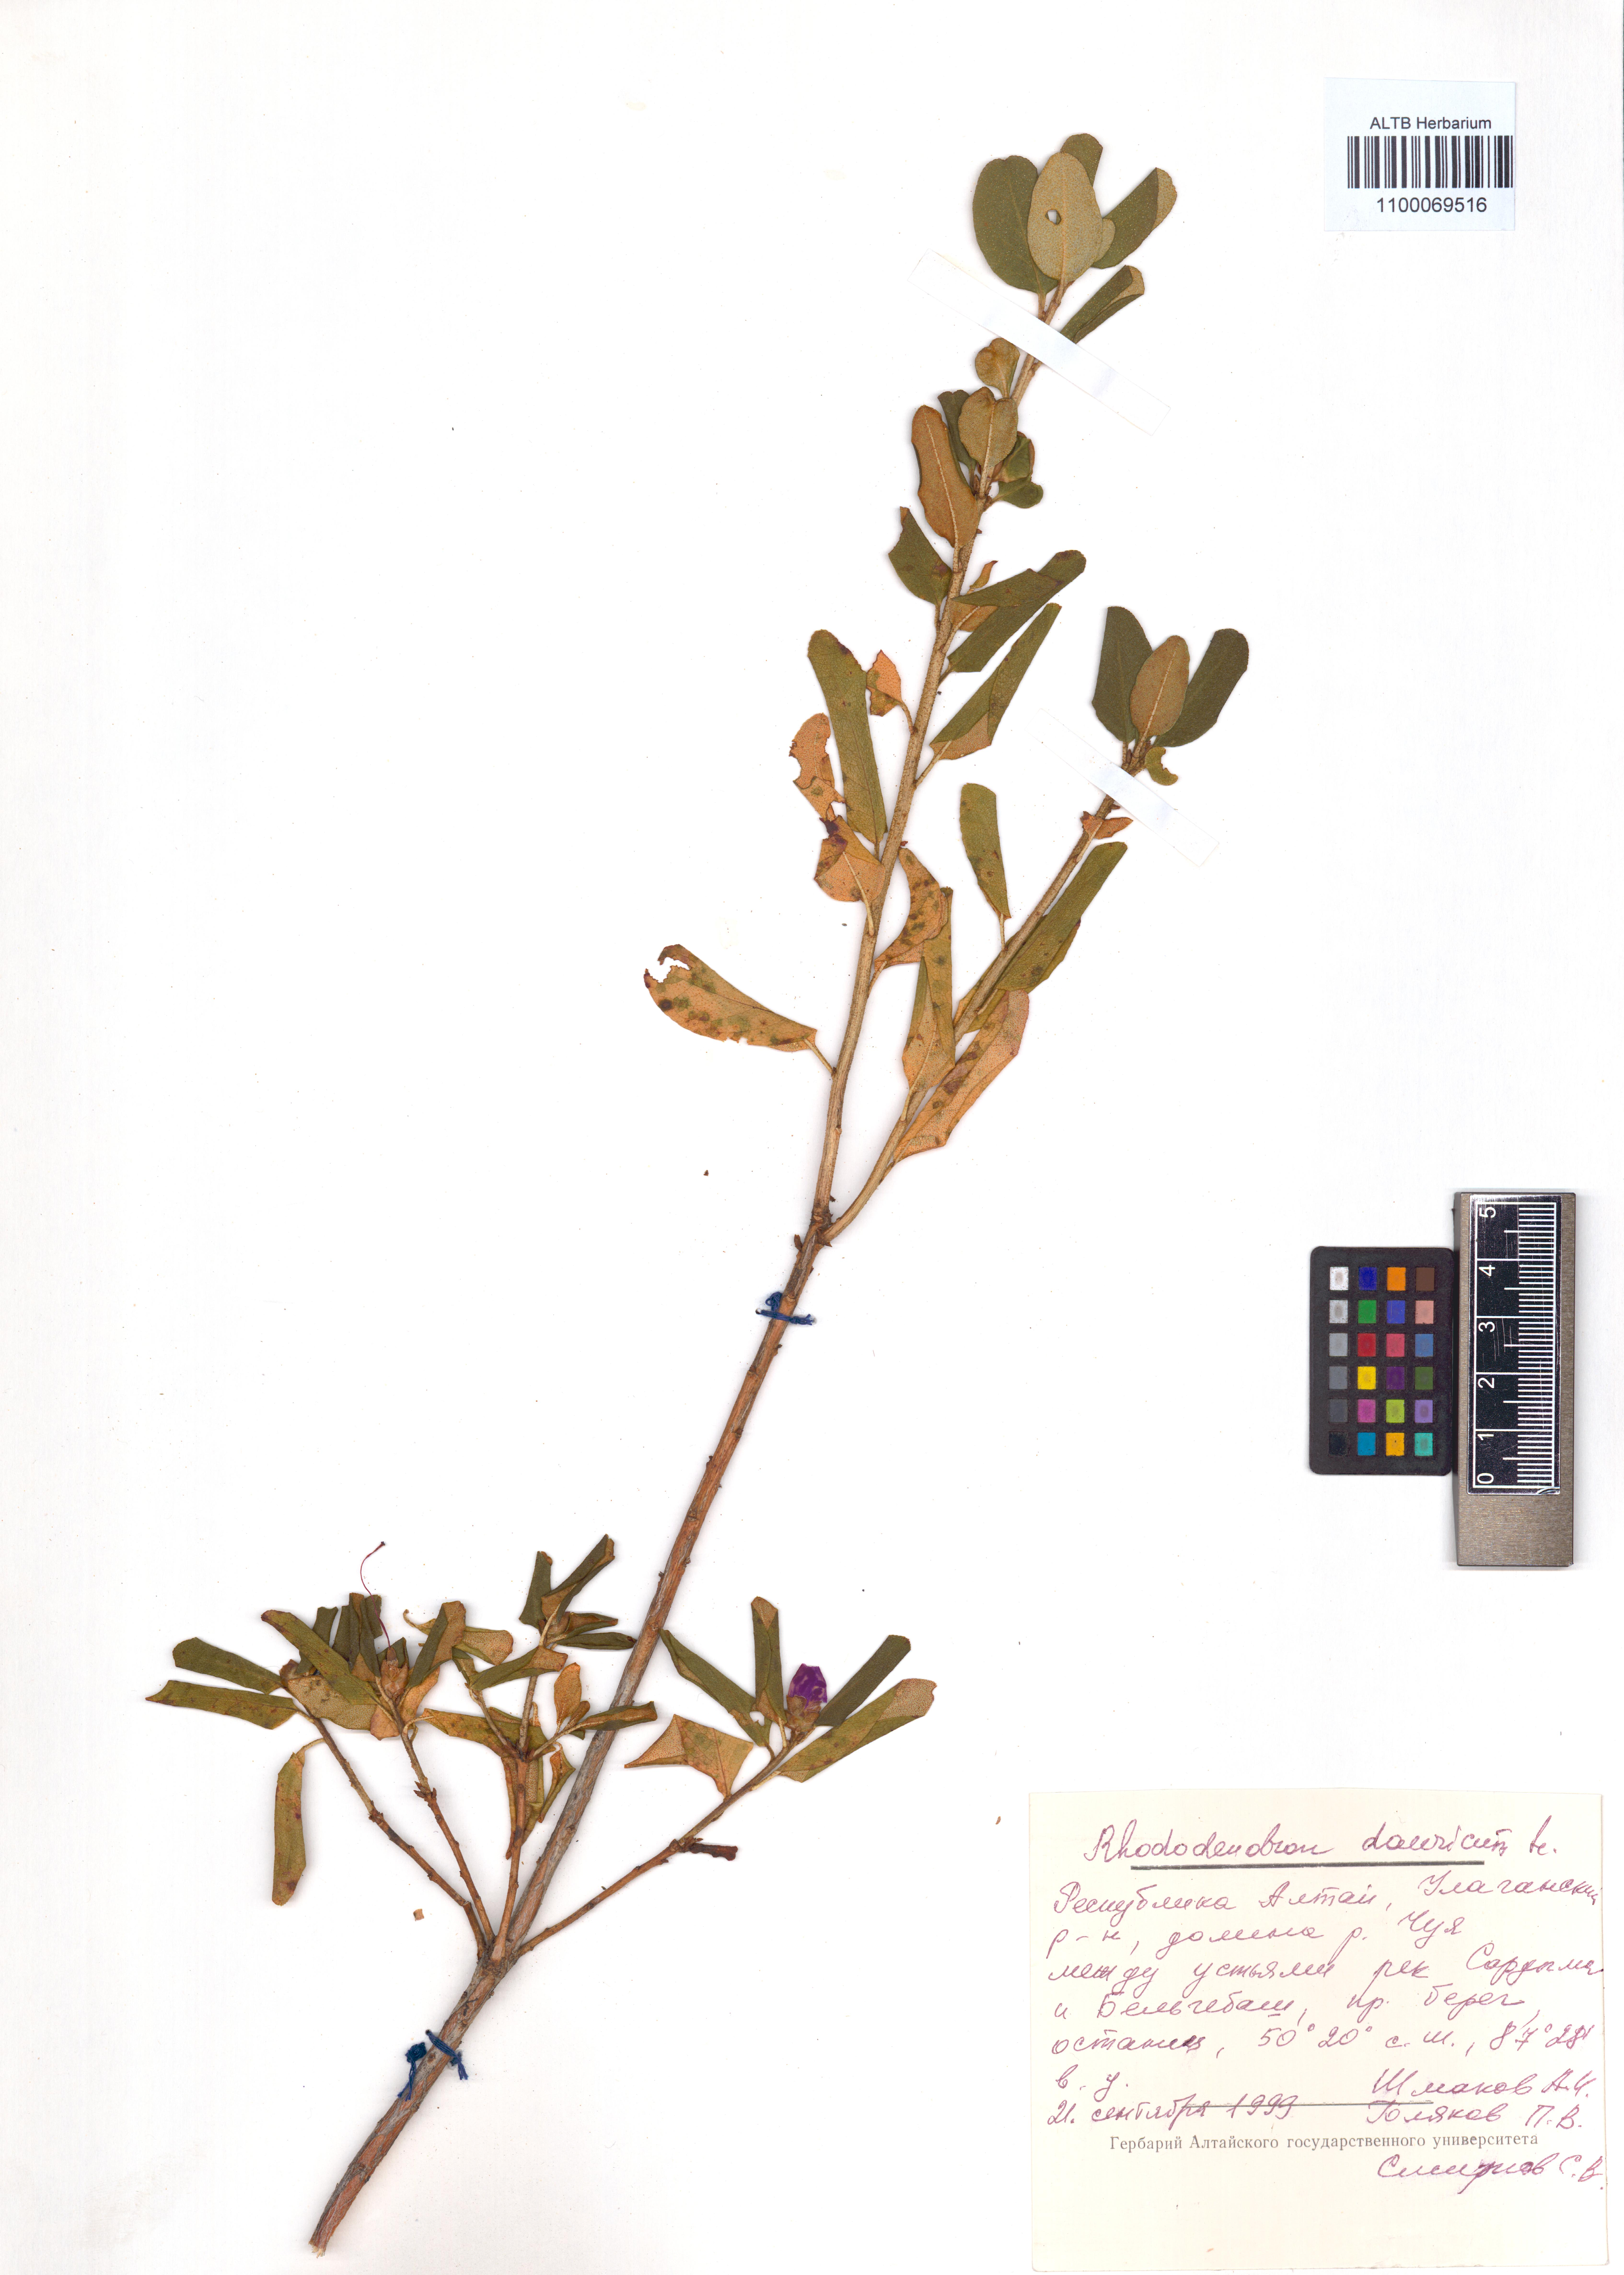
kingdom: Plantae
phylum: Tracheophyta
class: Magnoliopsida
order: Ericales
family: Ericaceae
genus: Rhododendron
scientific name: Rhododendron dauricum
